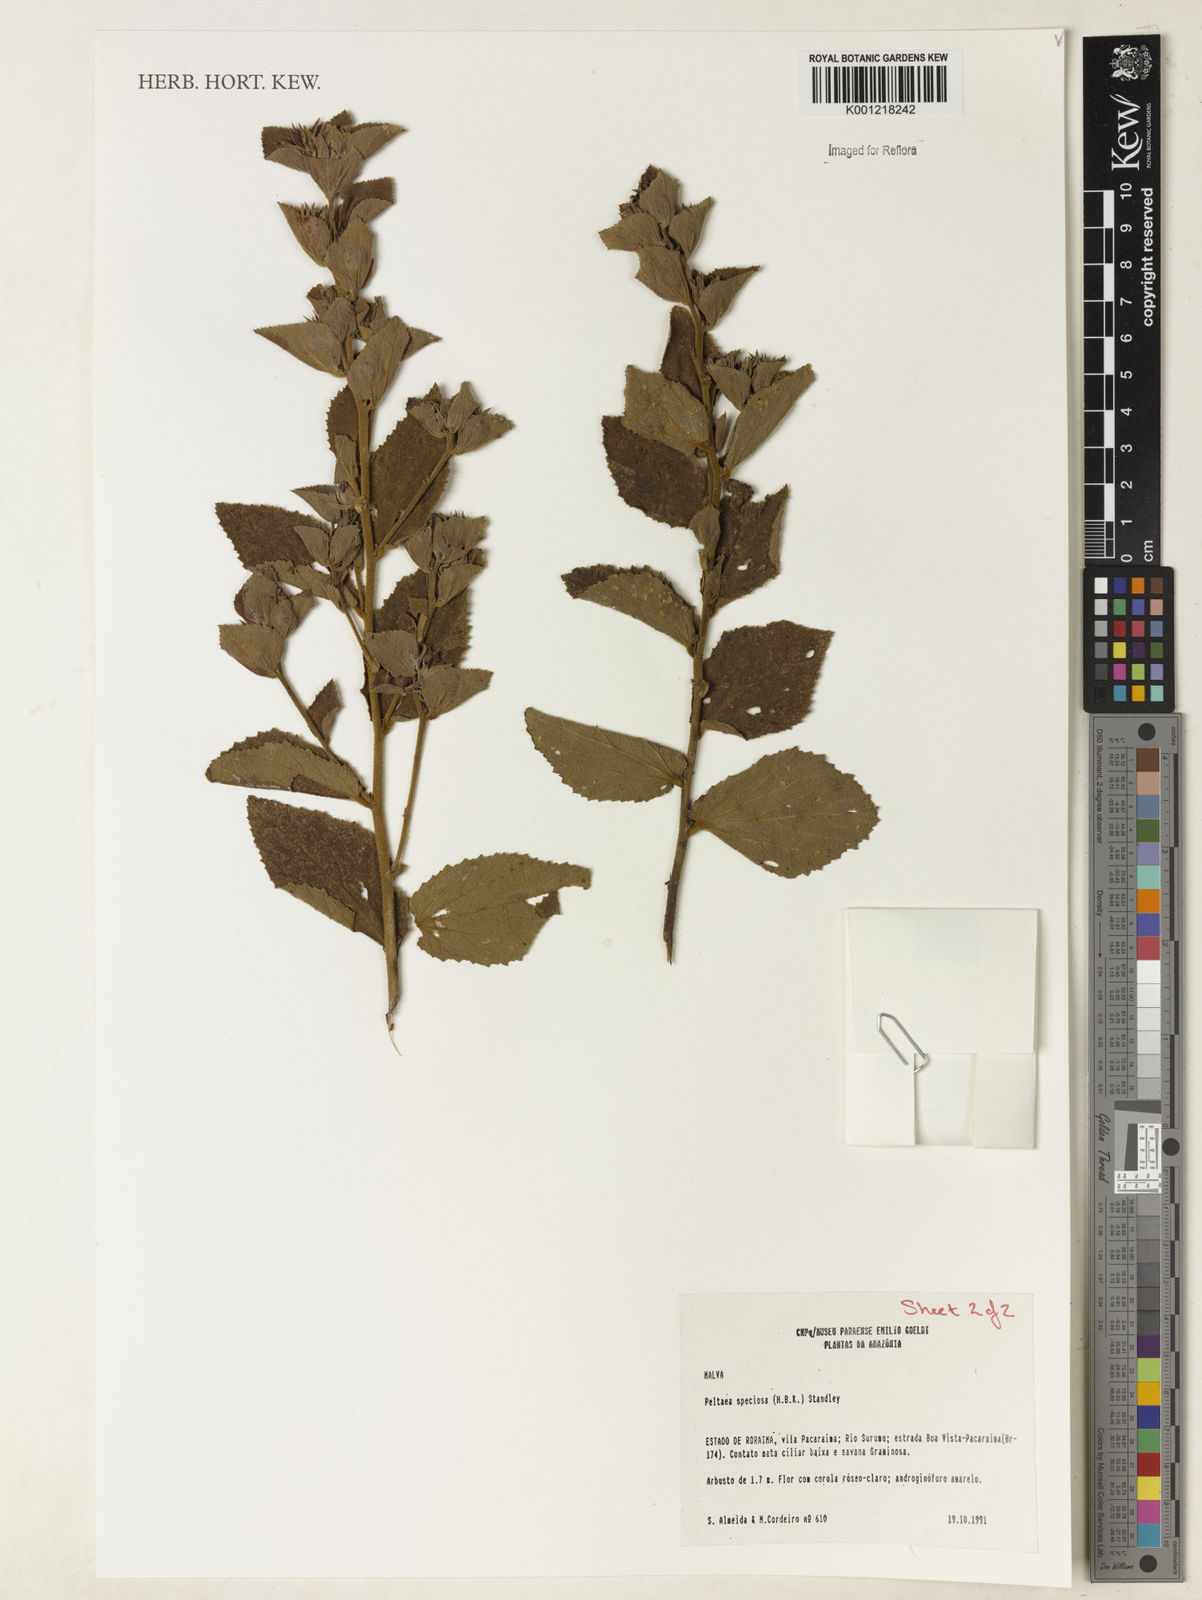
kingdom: Plantae
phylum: Tracheophyta
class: Magnoliopsida
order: Malvales
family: Malvaceae
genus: Peltaea
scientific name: Peltaea speciosa
